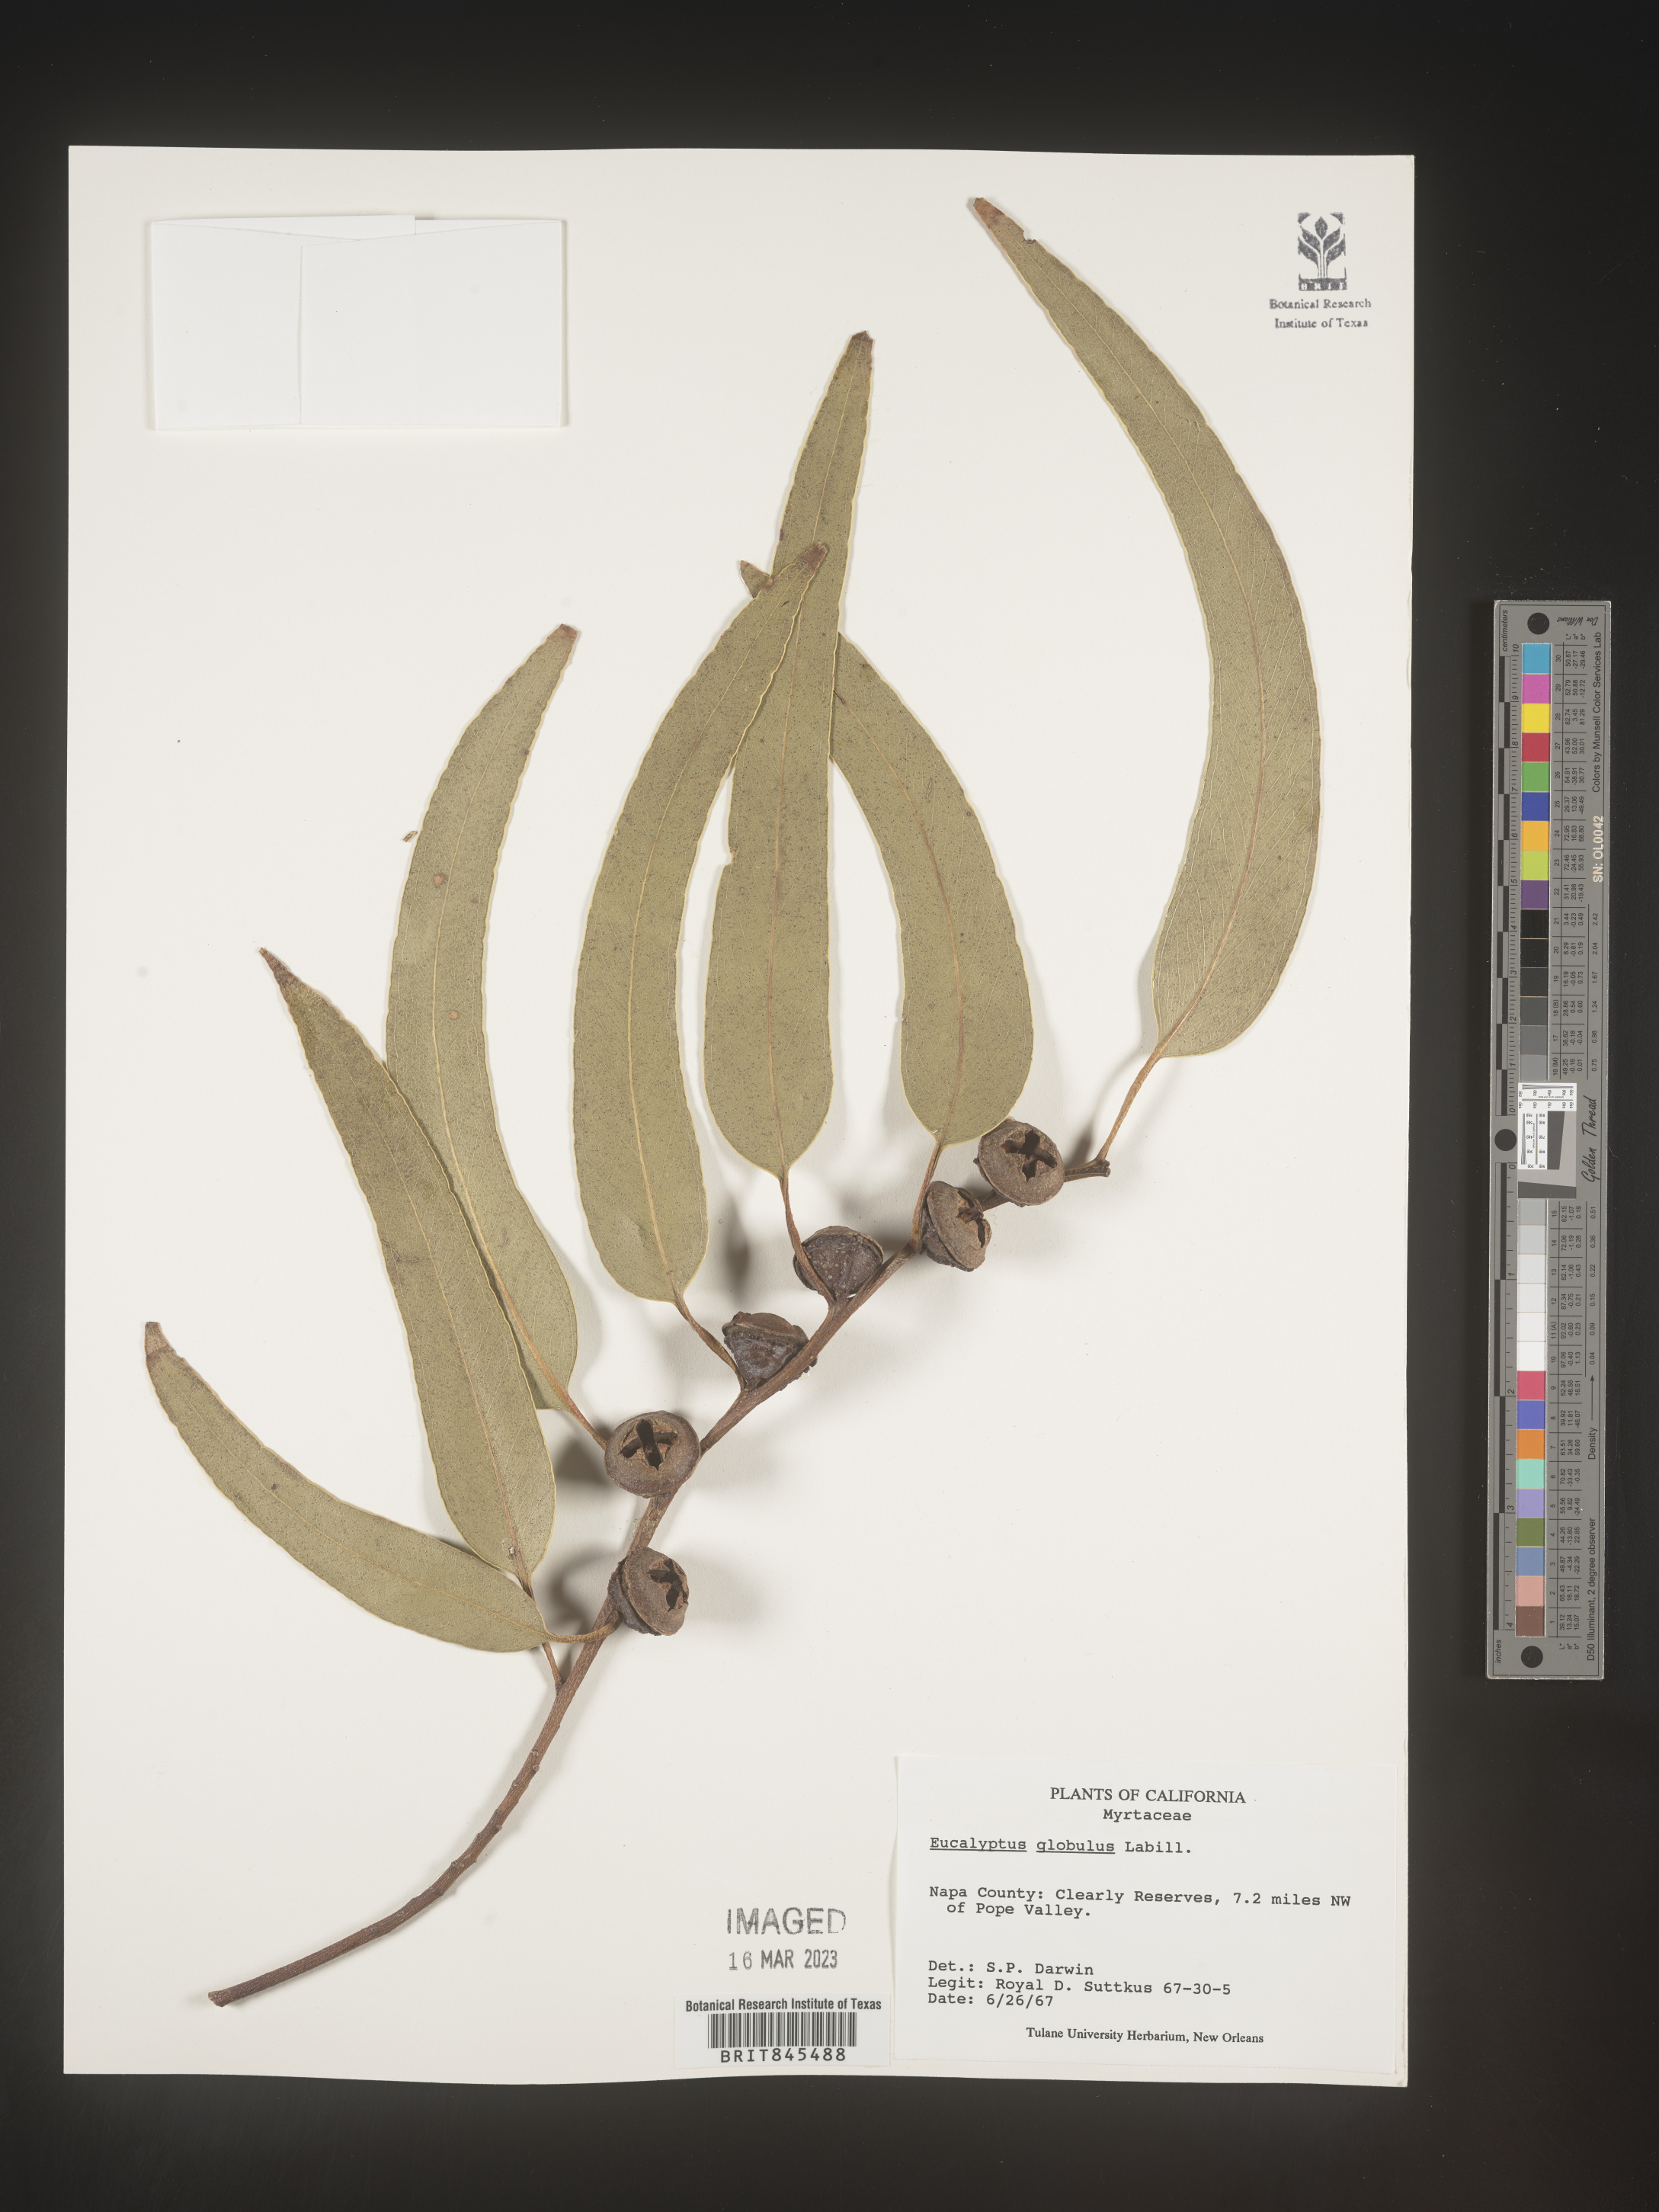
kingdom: Plantae
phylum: Tracheophyta
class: Magnoliopsida
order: Myrtales
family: Myrtaceae
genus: Eucalyptus
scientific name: Eucalyptus
